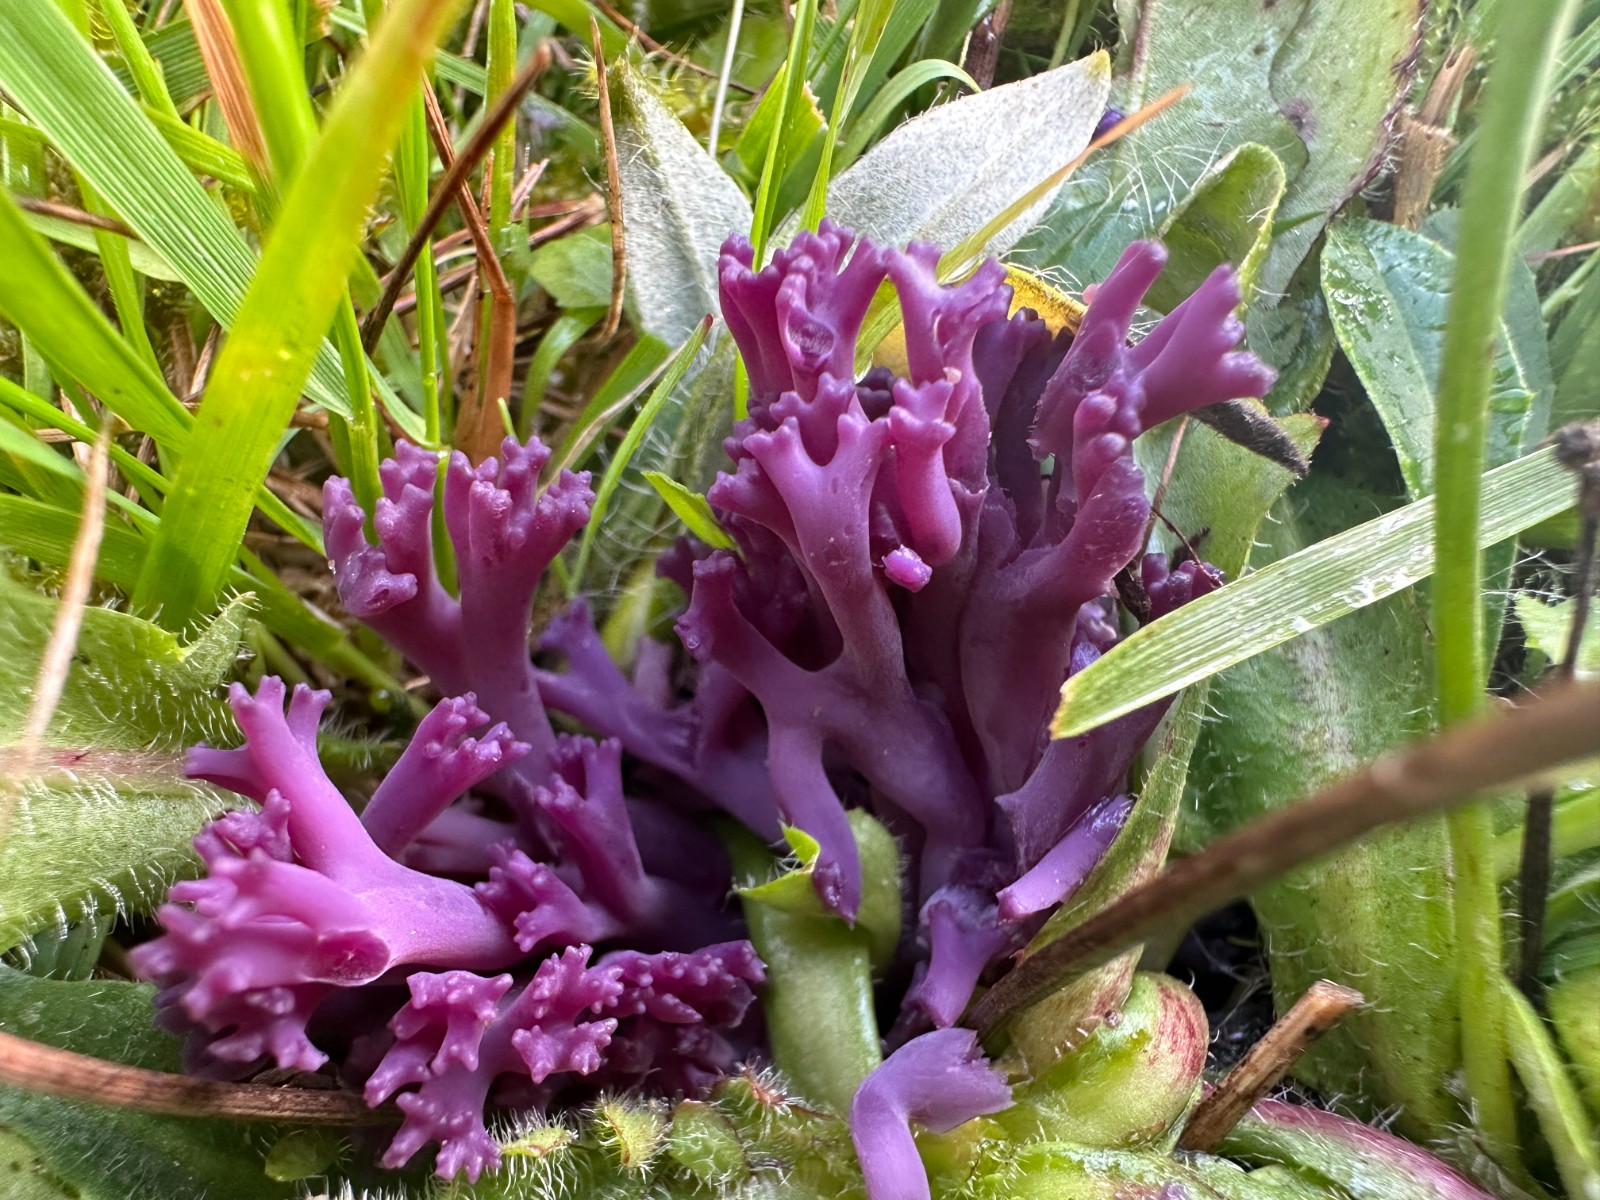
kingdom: Fungi
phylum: Basidiomycota
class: Agaricomycetes
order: Agaricales
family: Clavariaceae
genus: Clavaria
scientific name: Clavaria zollingeri
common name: purpur-køllesvamp
